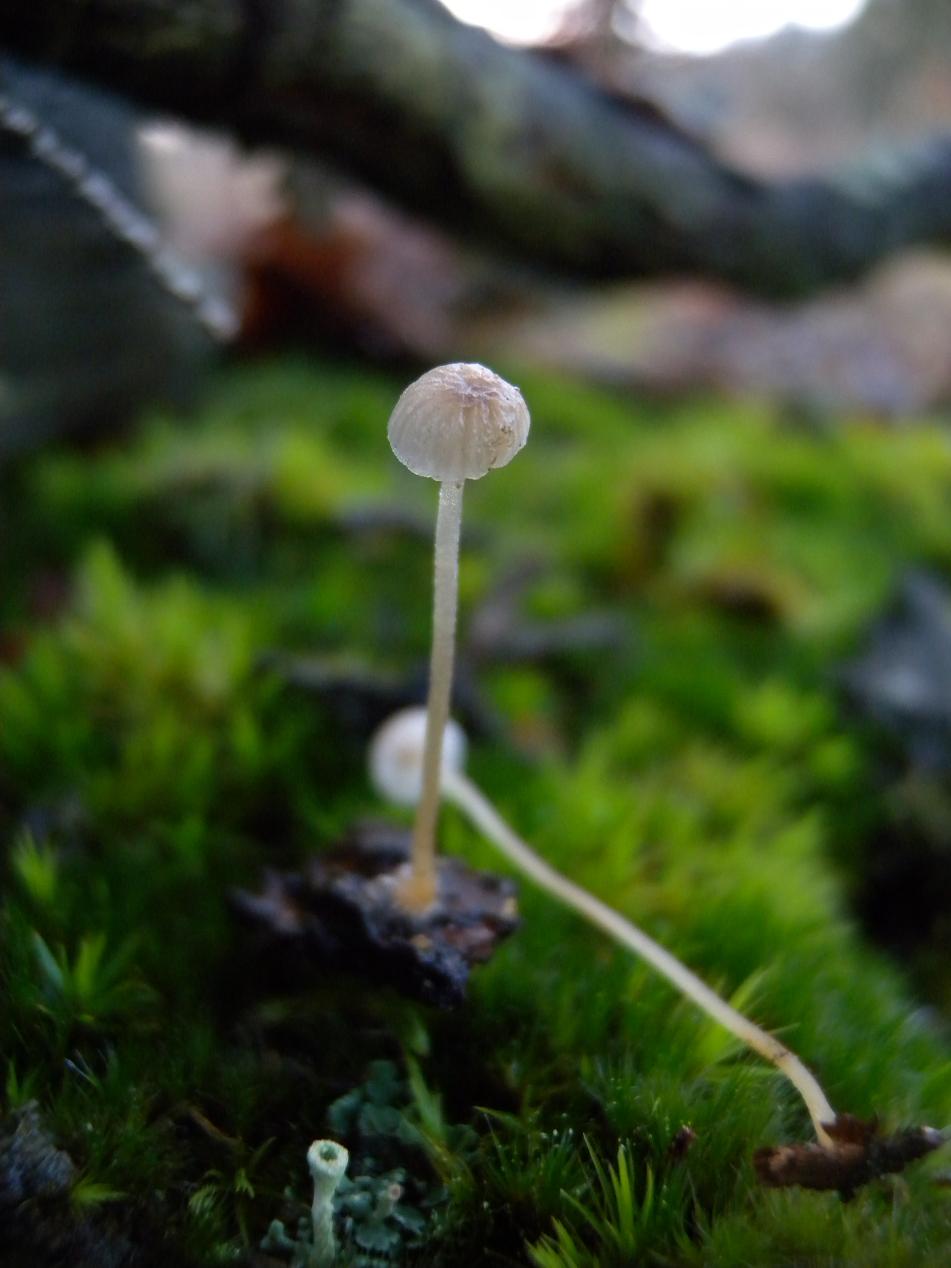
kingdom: Fungi
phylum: Basidiomycota
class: Agaricomycetes
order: Agaricales
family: Porotheleaceae
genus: Phloeomana
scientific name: Phloeomana speirea
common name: kvist-huesvamp
